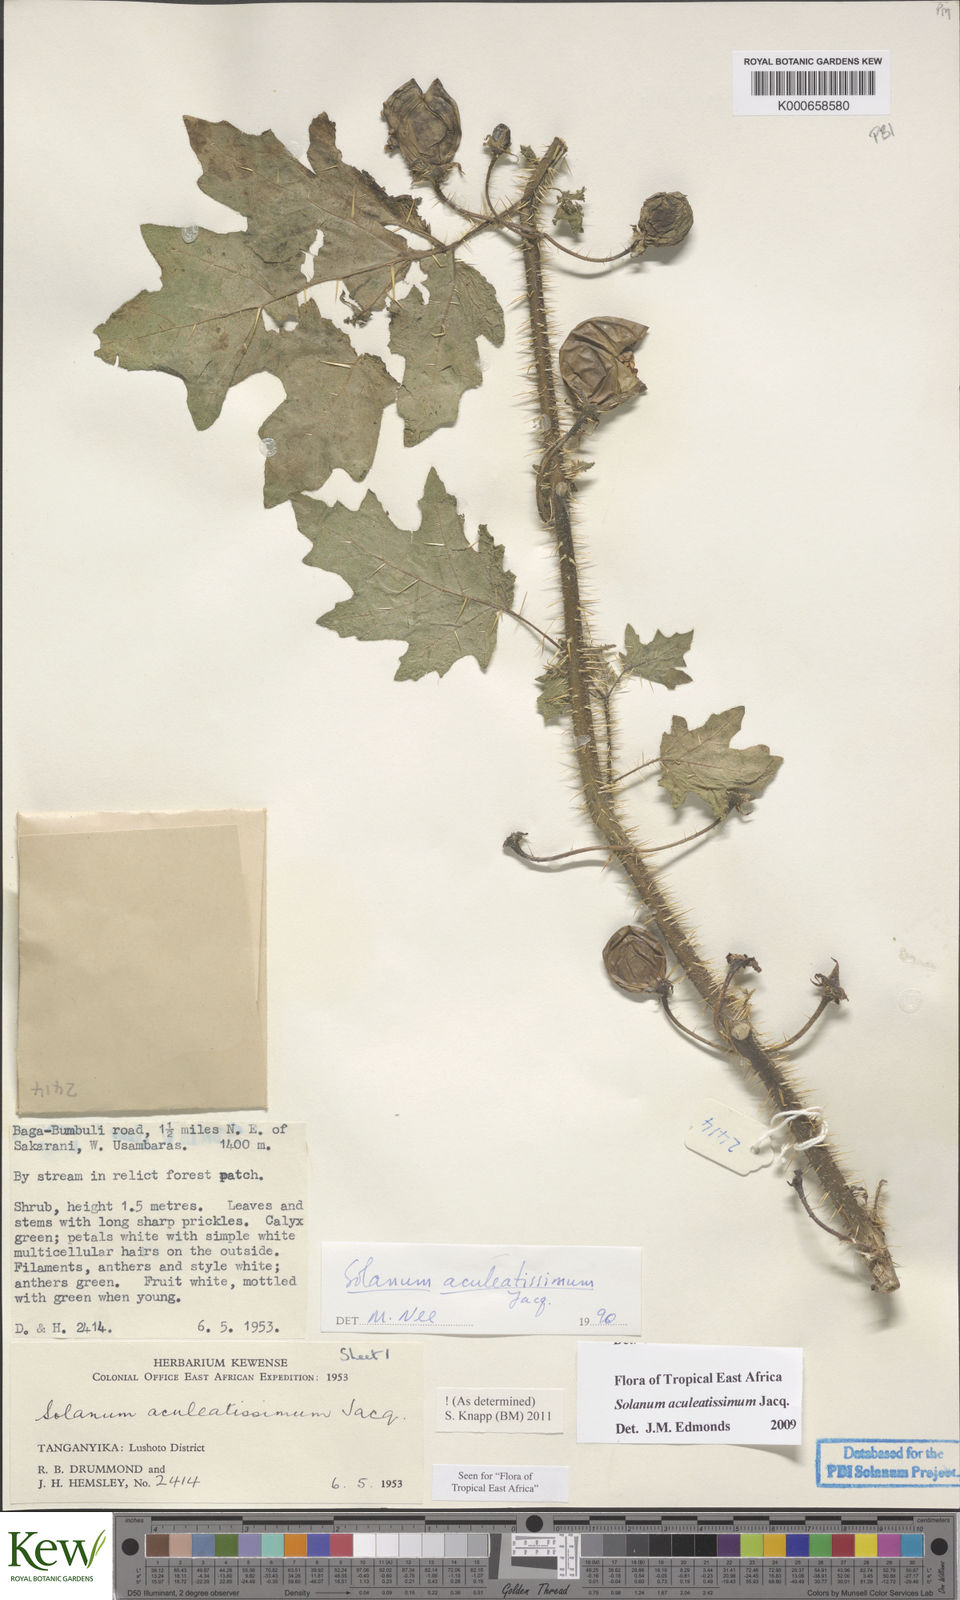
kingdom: Plantae
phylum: Tracheophyta
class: Magnoliopsida
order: Solanales
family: Solanaceae
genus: Solanum
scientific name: Solanum aculeatissimum
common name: Dutch eggplant
